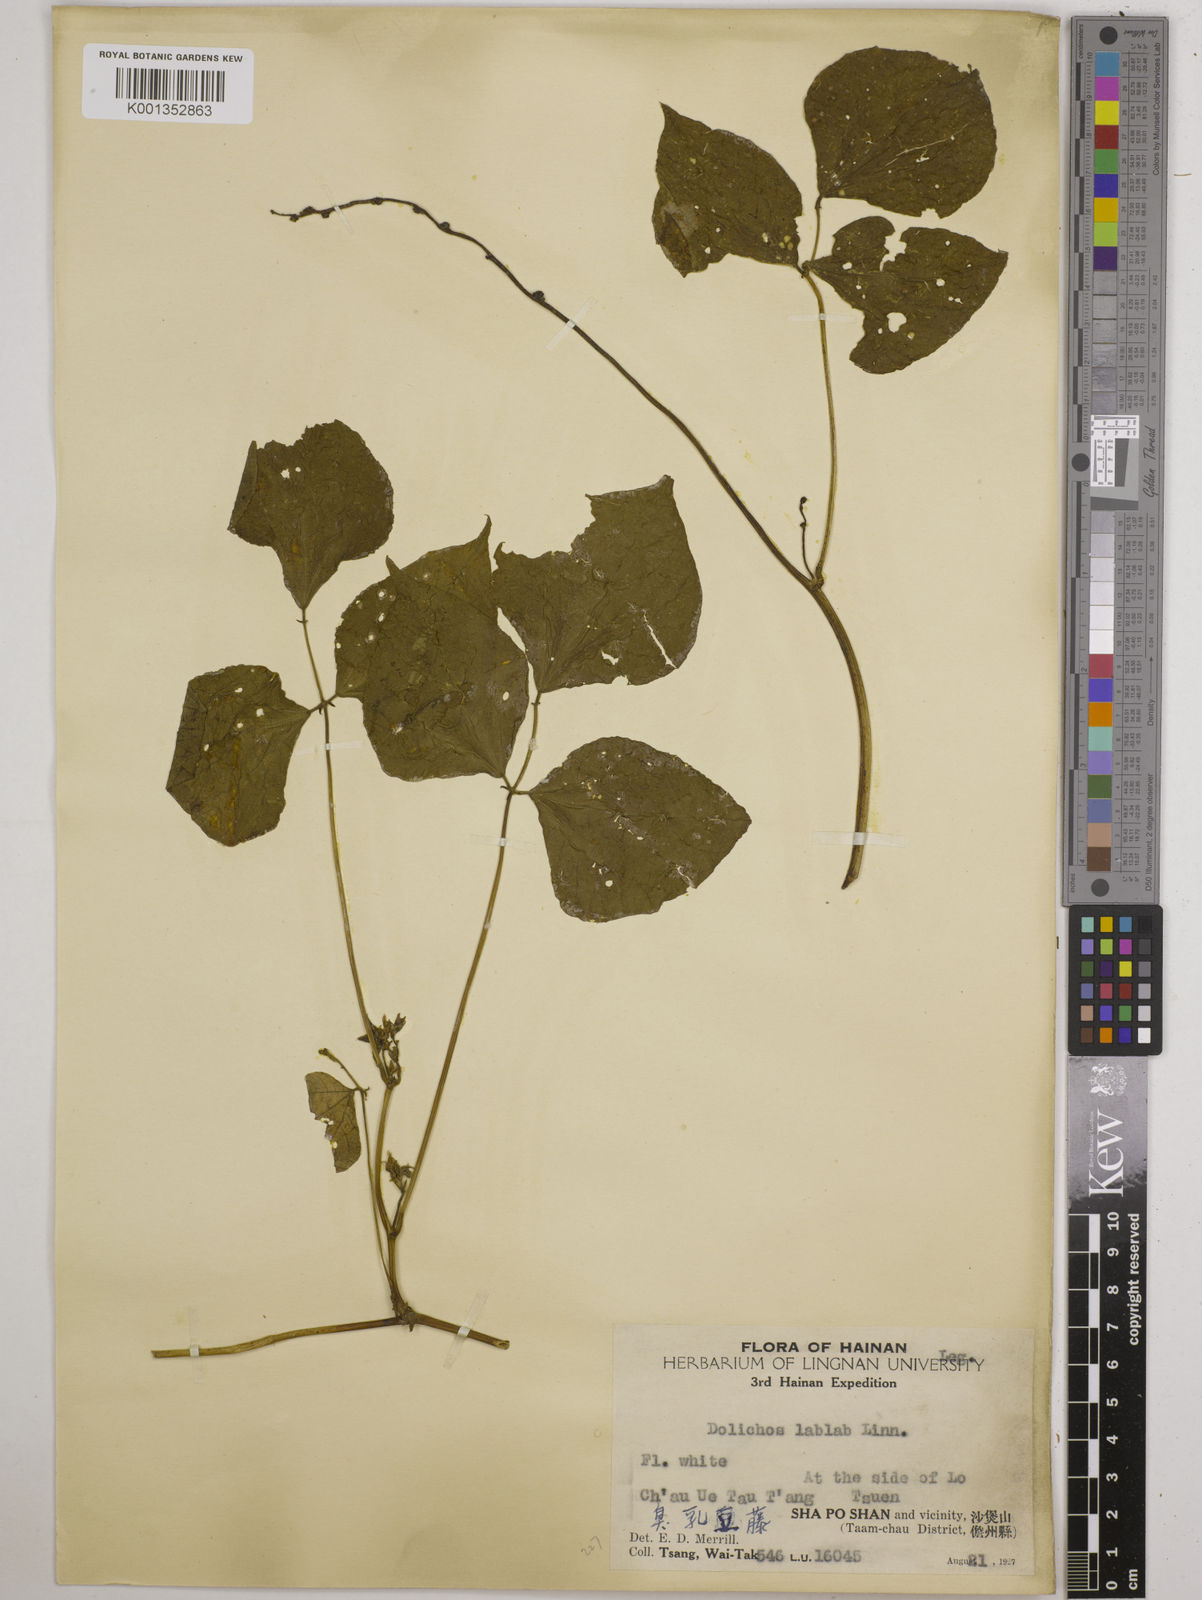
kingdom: Plantae
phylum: Tracheophyta
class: Magnoliopsida
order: Fabales
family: Fabaceae
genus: Lablab
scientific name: Lablab purpureus
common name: Lablab-bean
